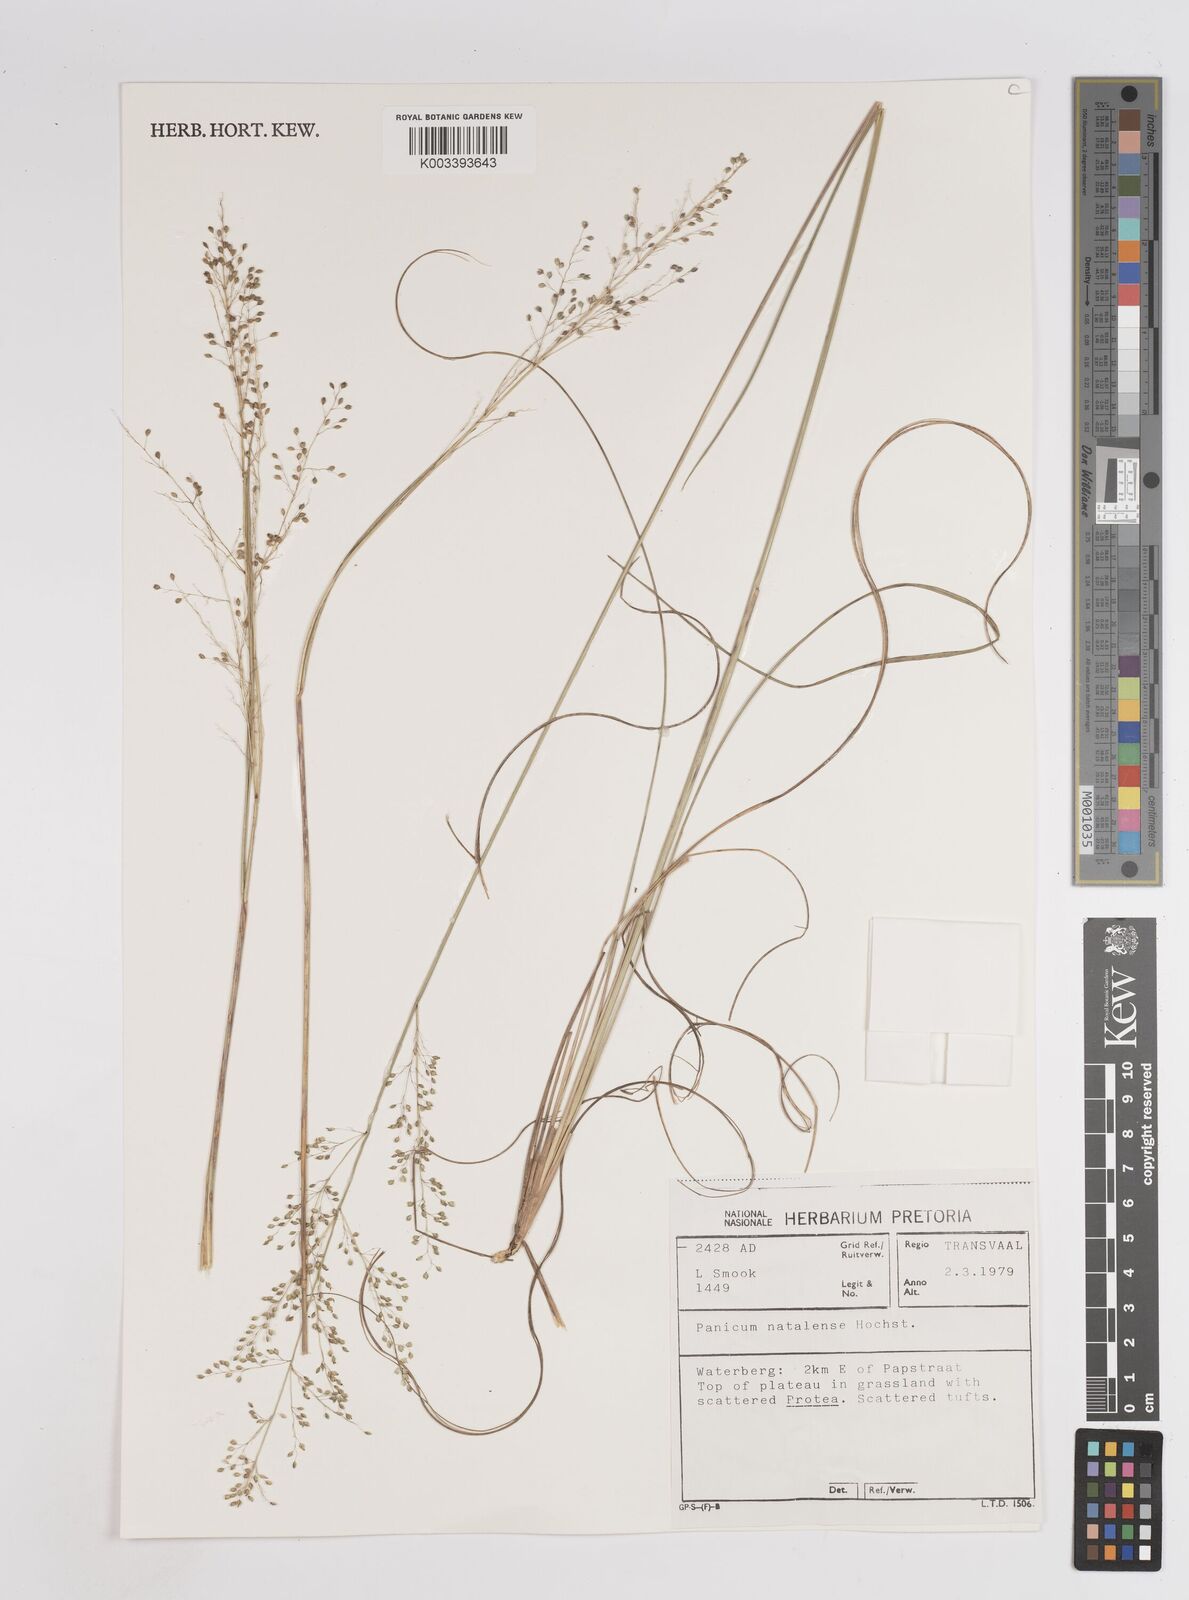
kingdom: Plantae
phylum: Tracheophyta
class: Liliopsida
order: Poales
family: Poaceae
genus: Trichanthecium
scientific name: Trichanthecium natalense
